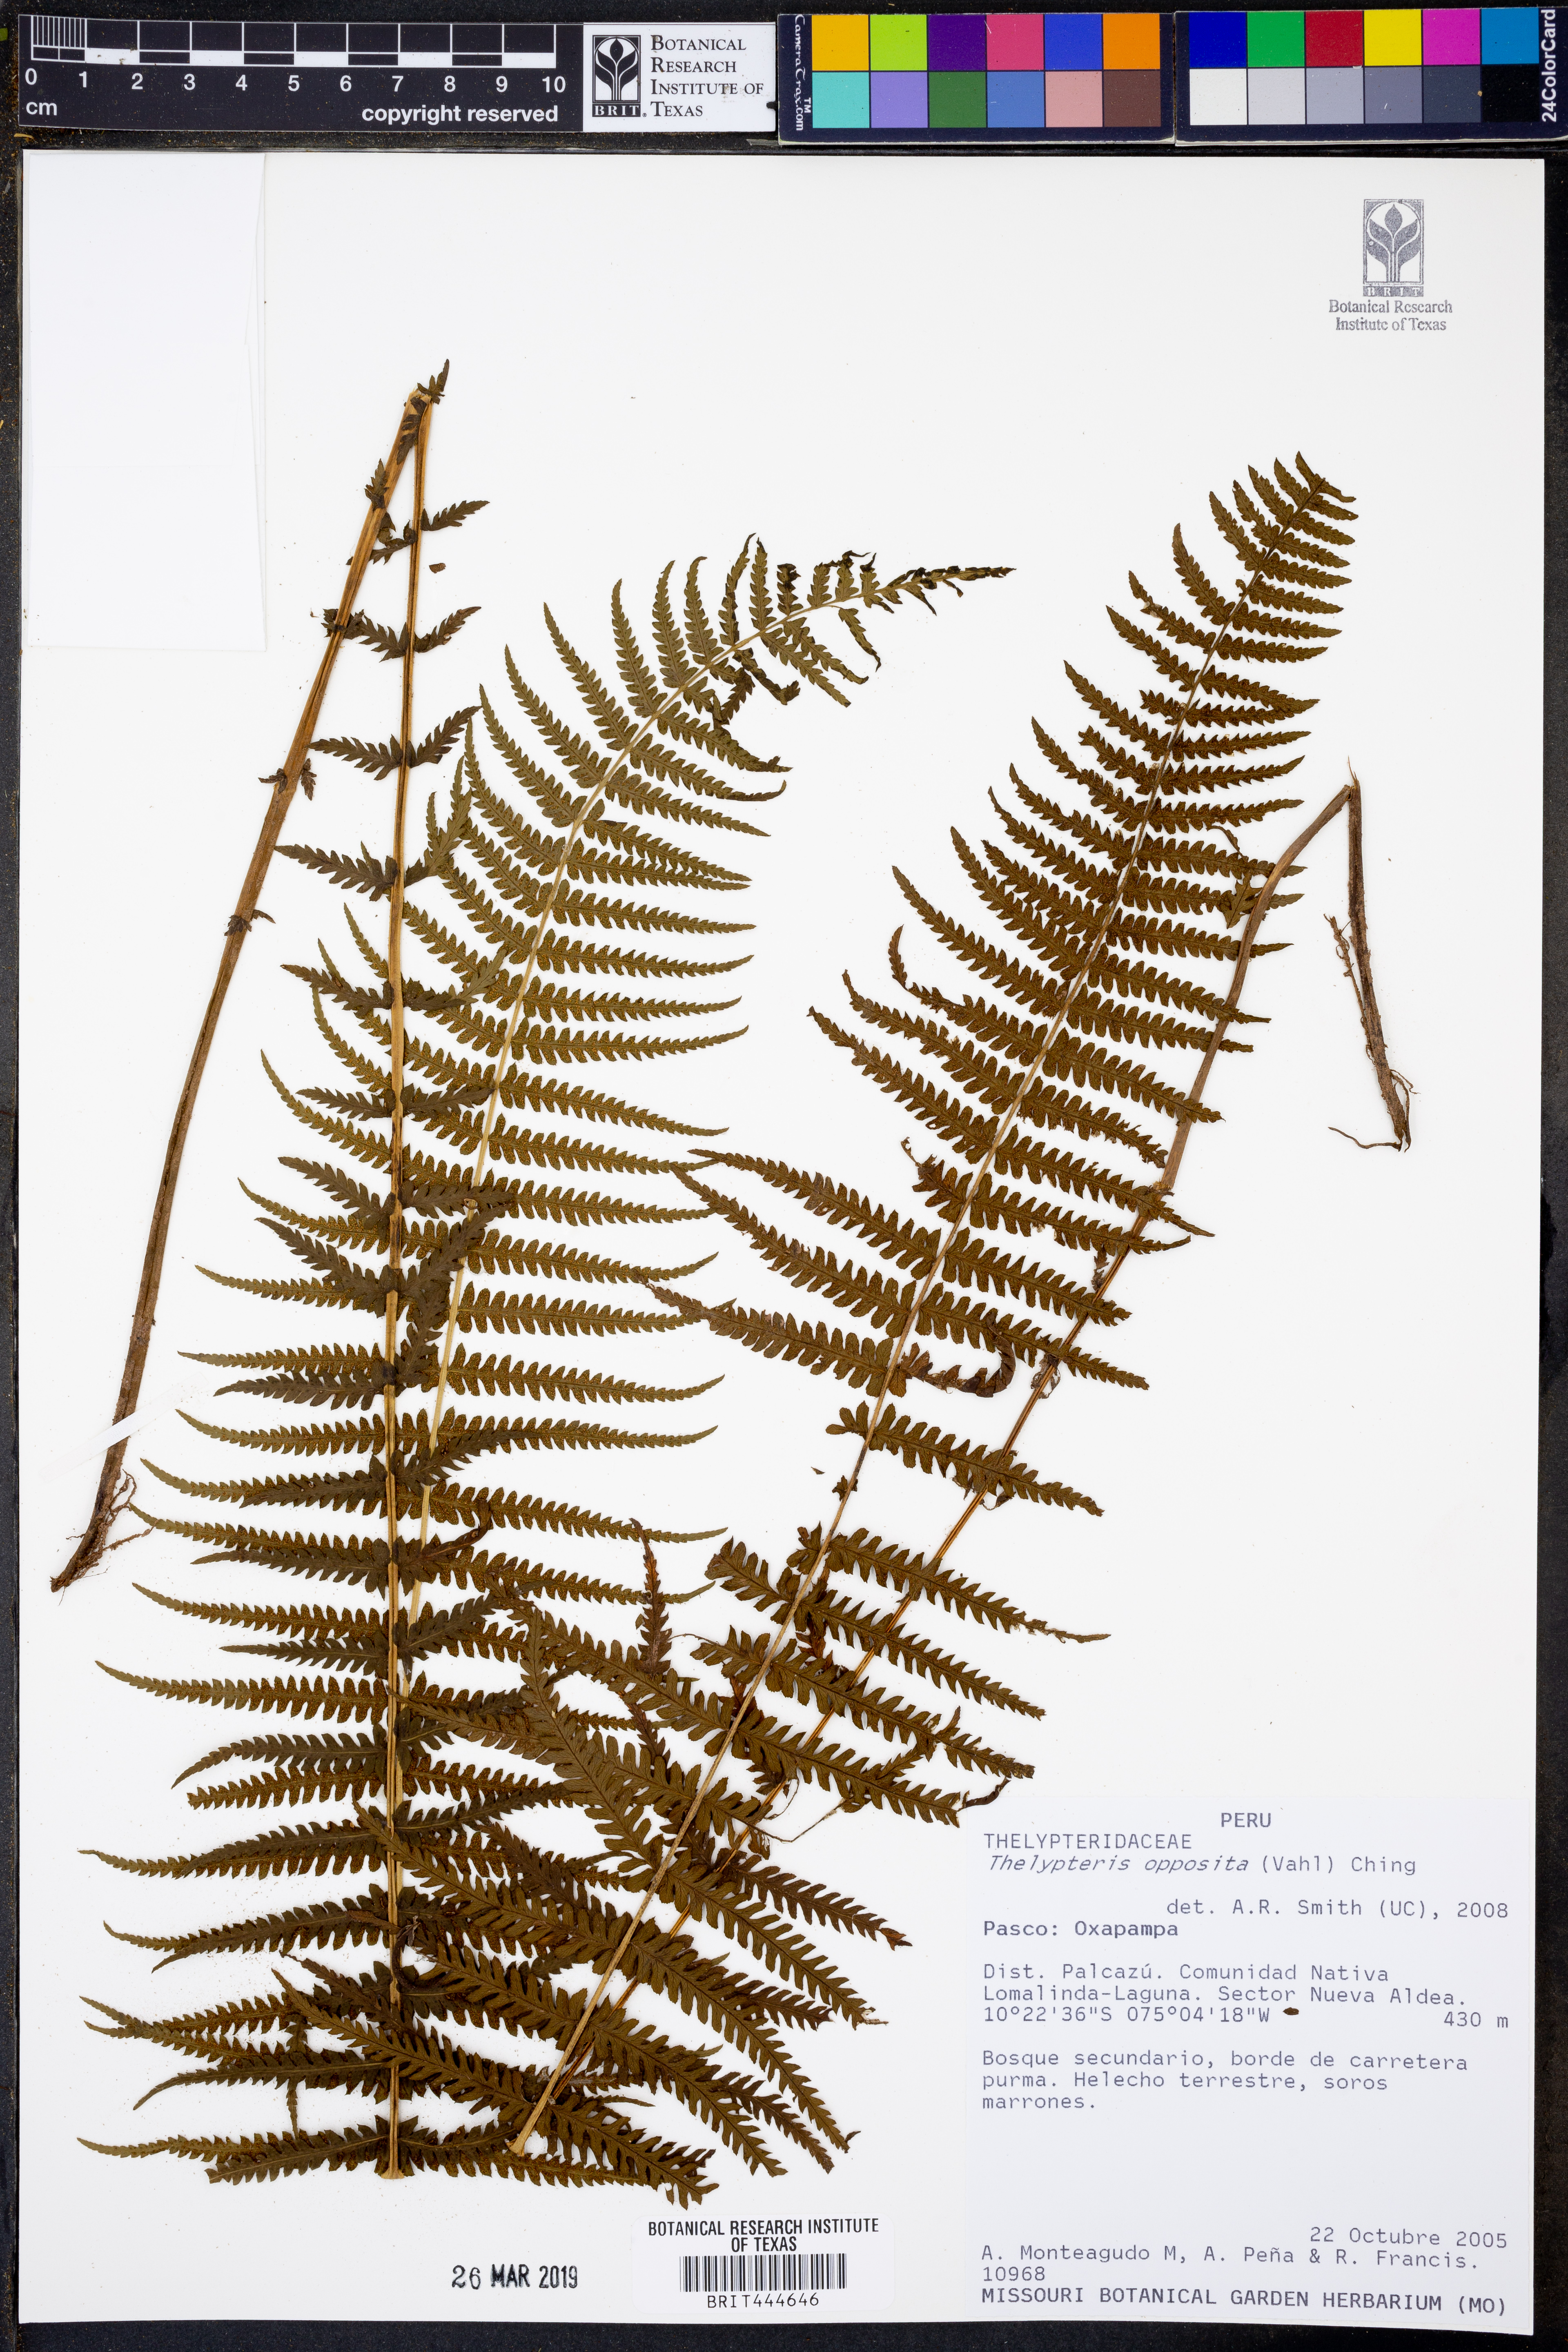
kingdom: Plantae
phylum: Tracheophyta
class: Polypodiopsida
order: Polypodiales
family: Thelypteridaceae
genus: Amauropelta
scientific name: Amauropelta opposita
